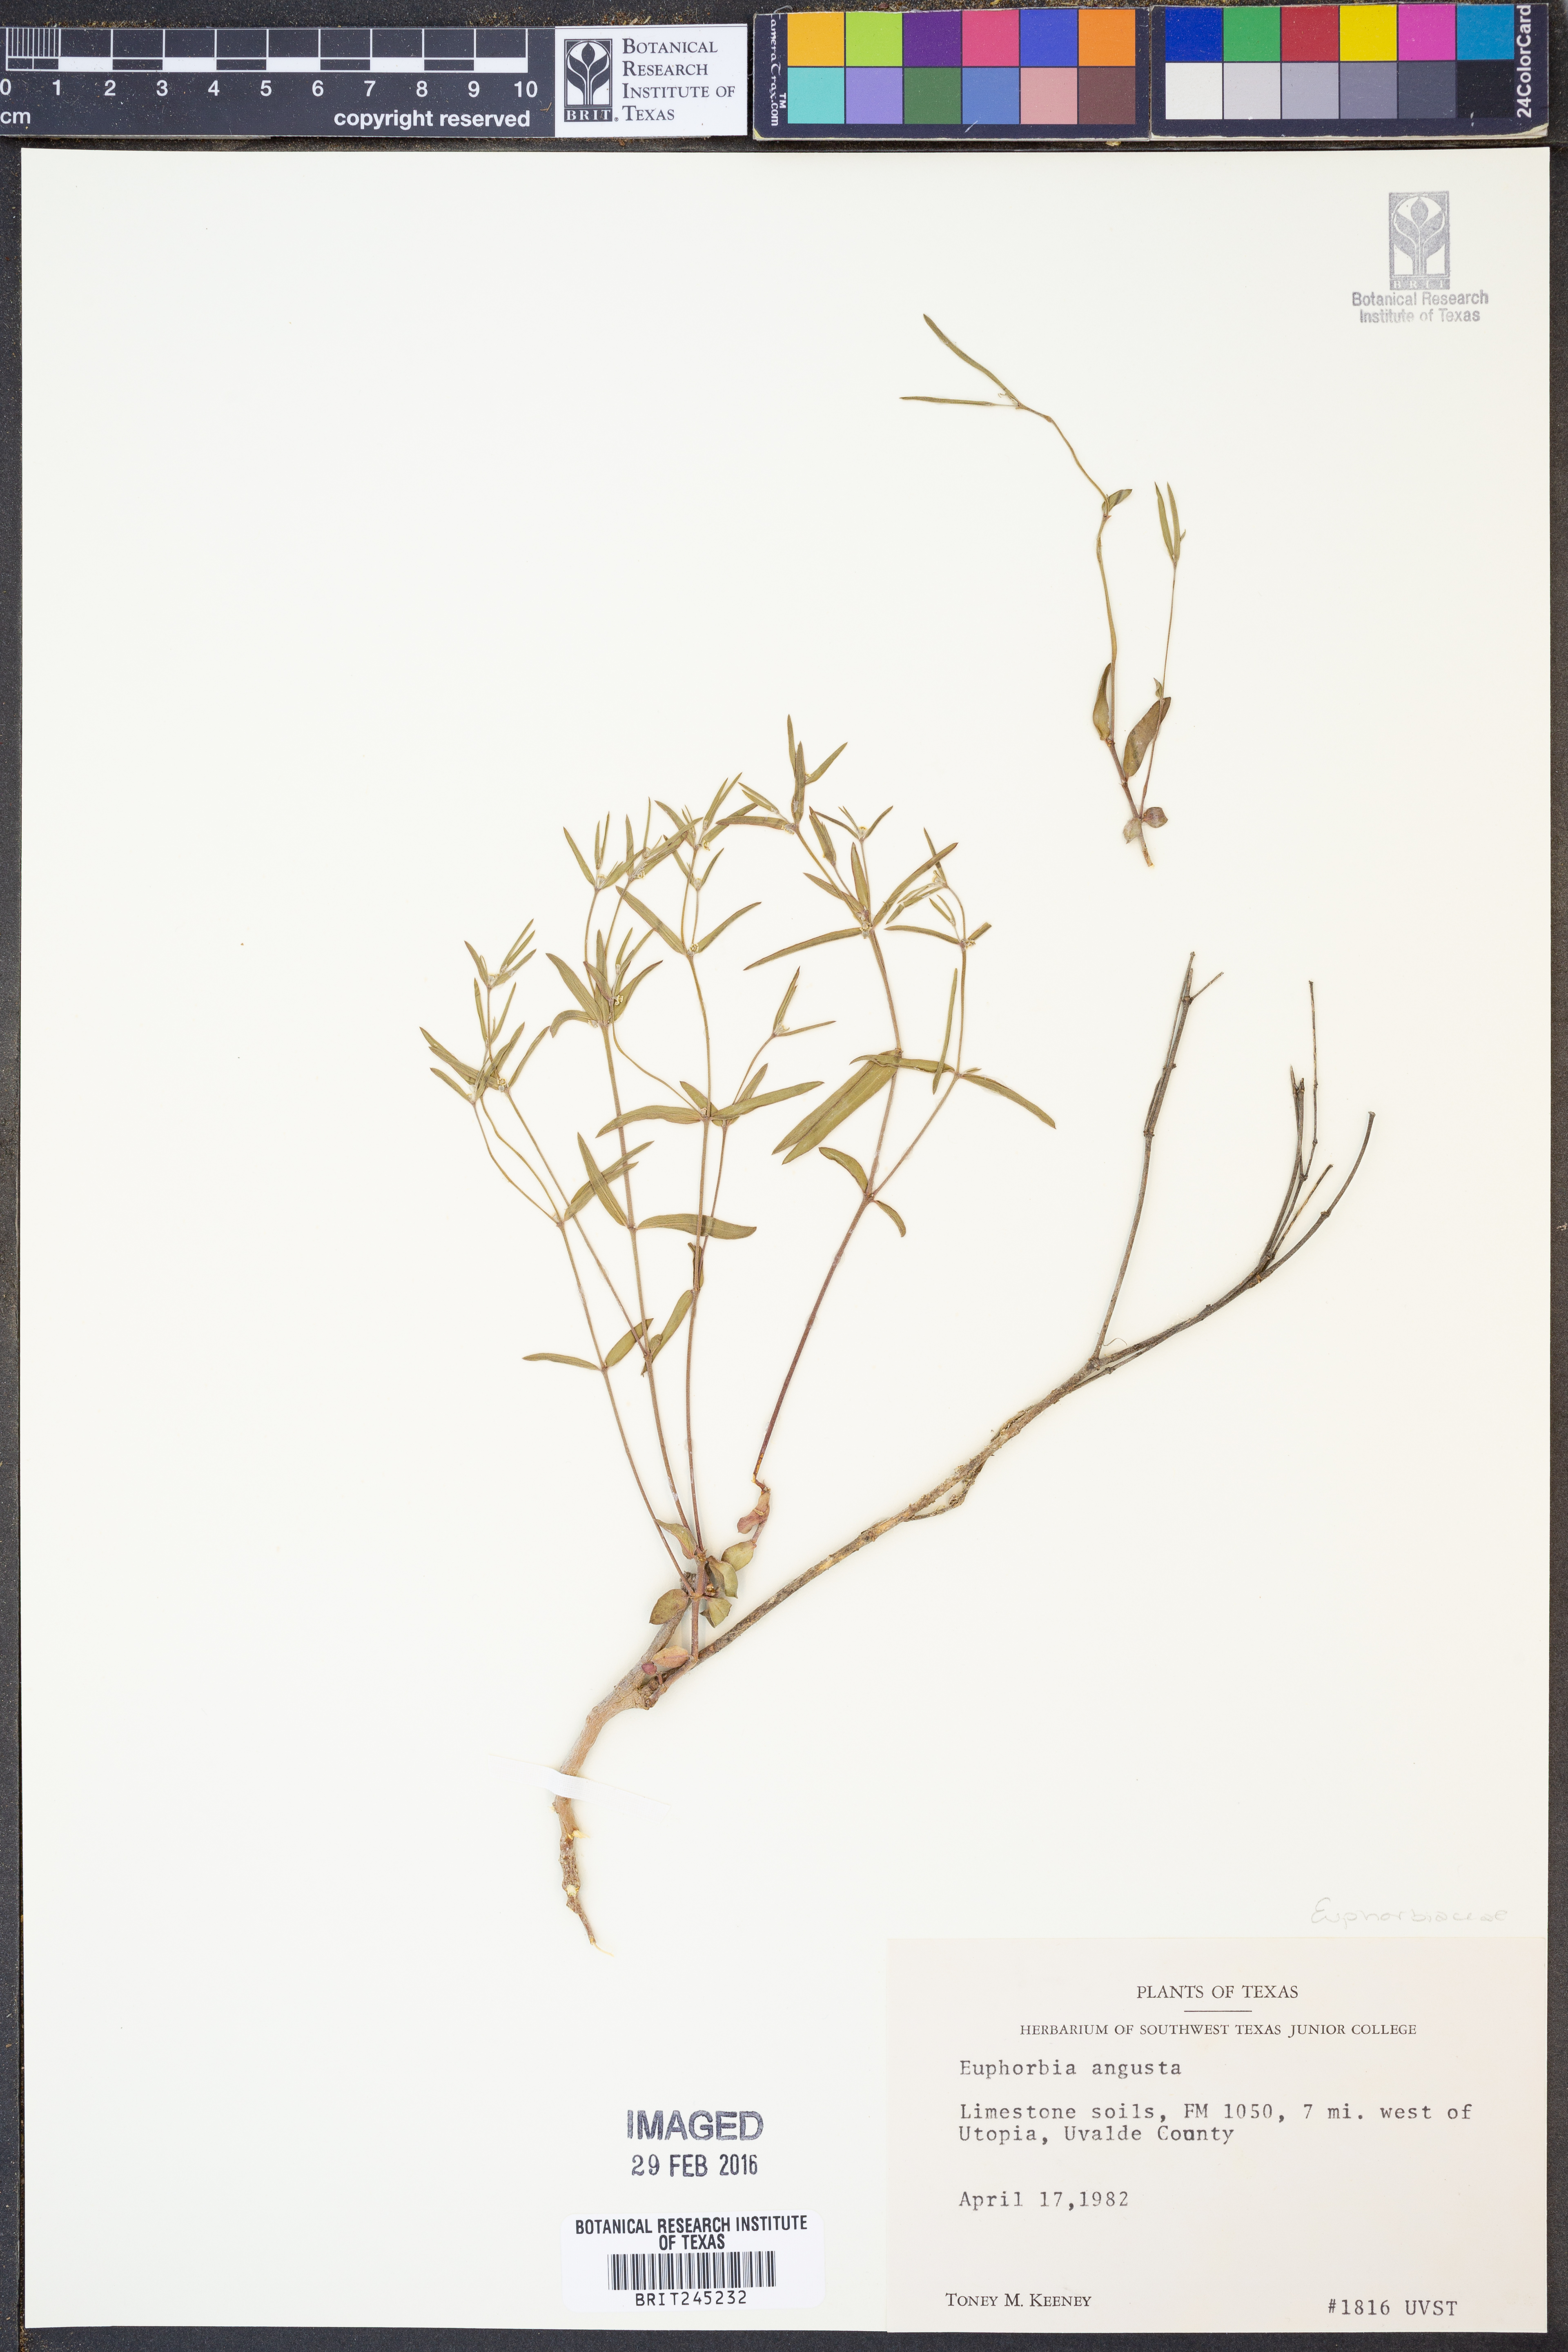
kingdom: Plantae
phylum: Tracheophyta
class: Magnoliopsida
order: Malpighiales
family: Euphorbiaceae
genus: Euphorbia
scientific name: Euphorbia angusta
